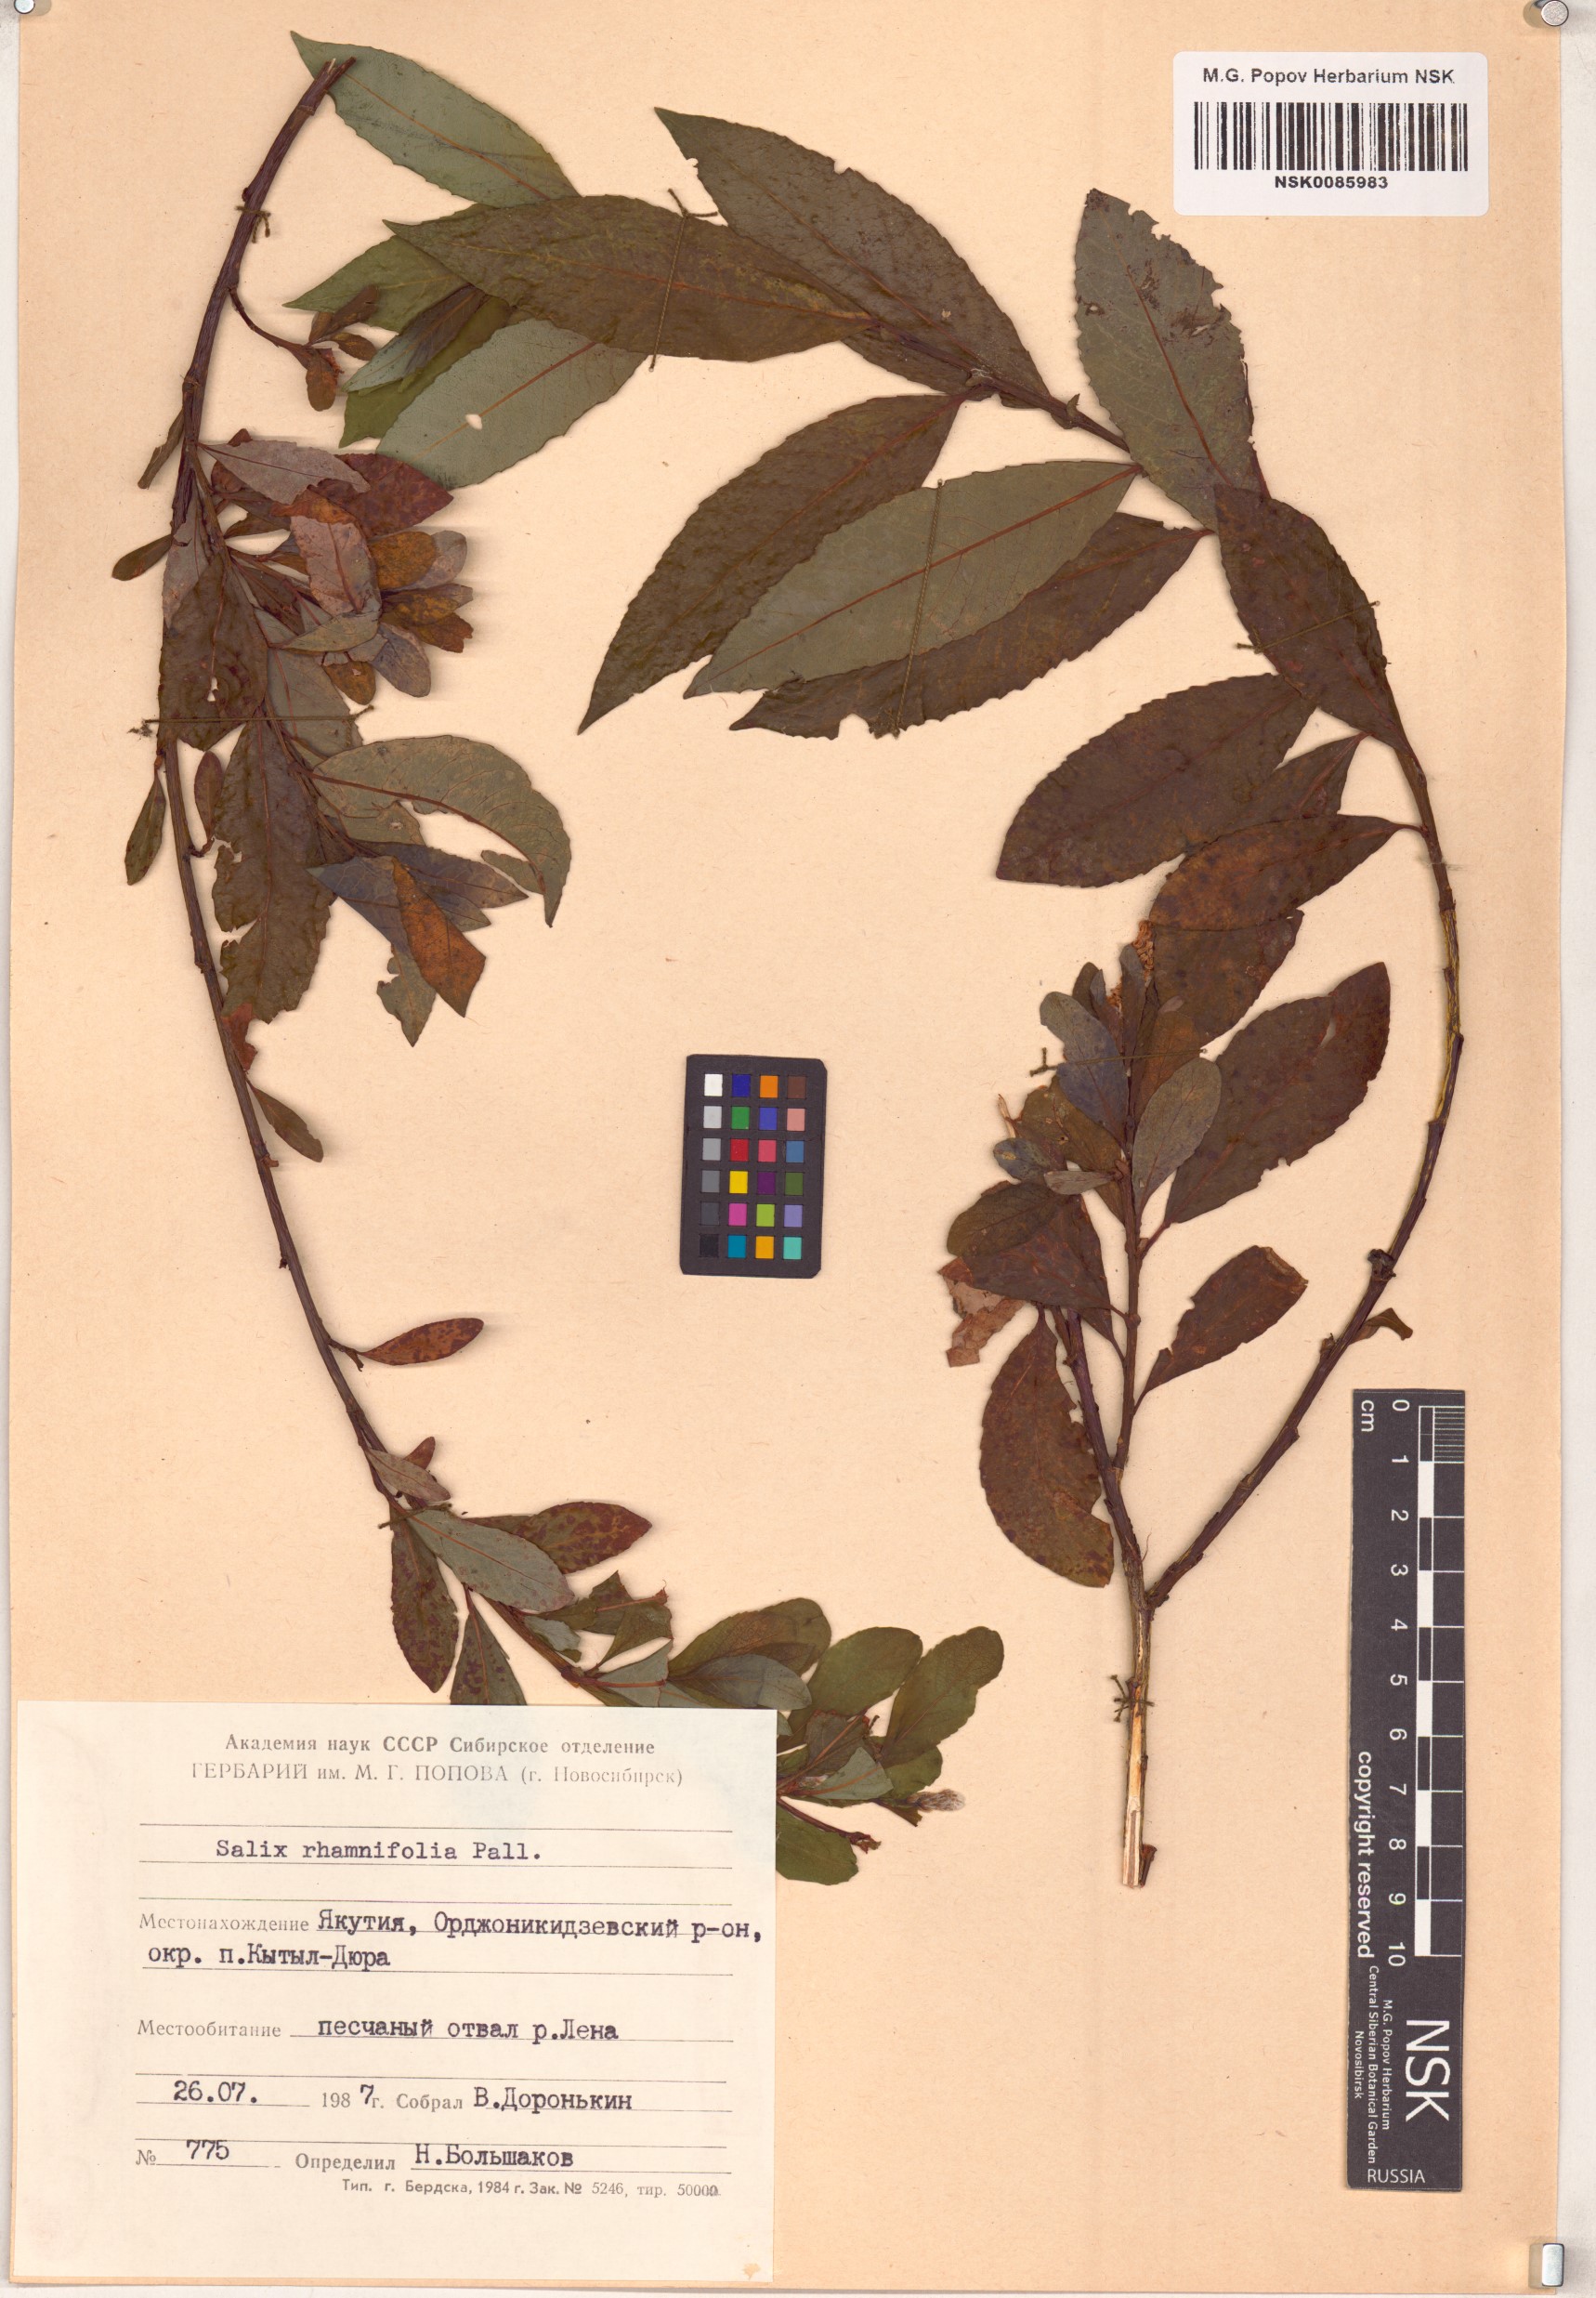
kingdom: Plantae
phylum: Tracheophyta
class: Magnoliopsida
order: Malpighiales
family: Salicaceae
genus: Salix
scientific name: Salix rhamnifolia
